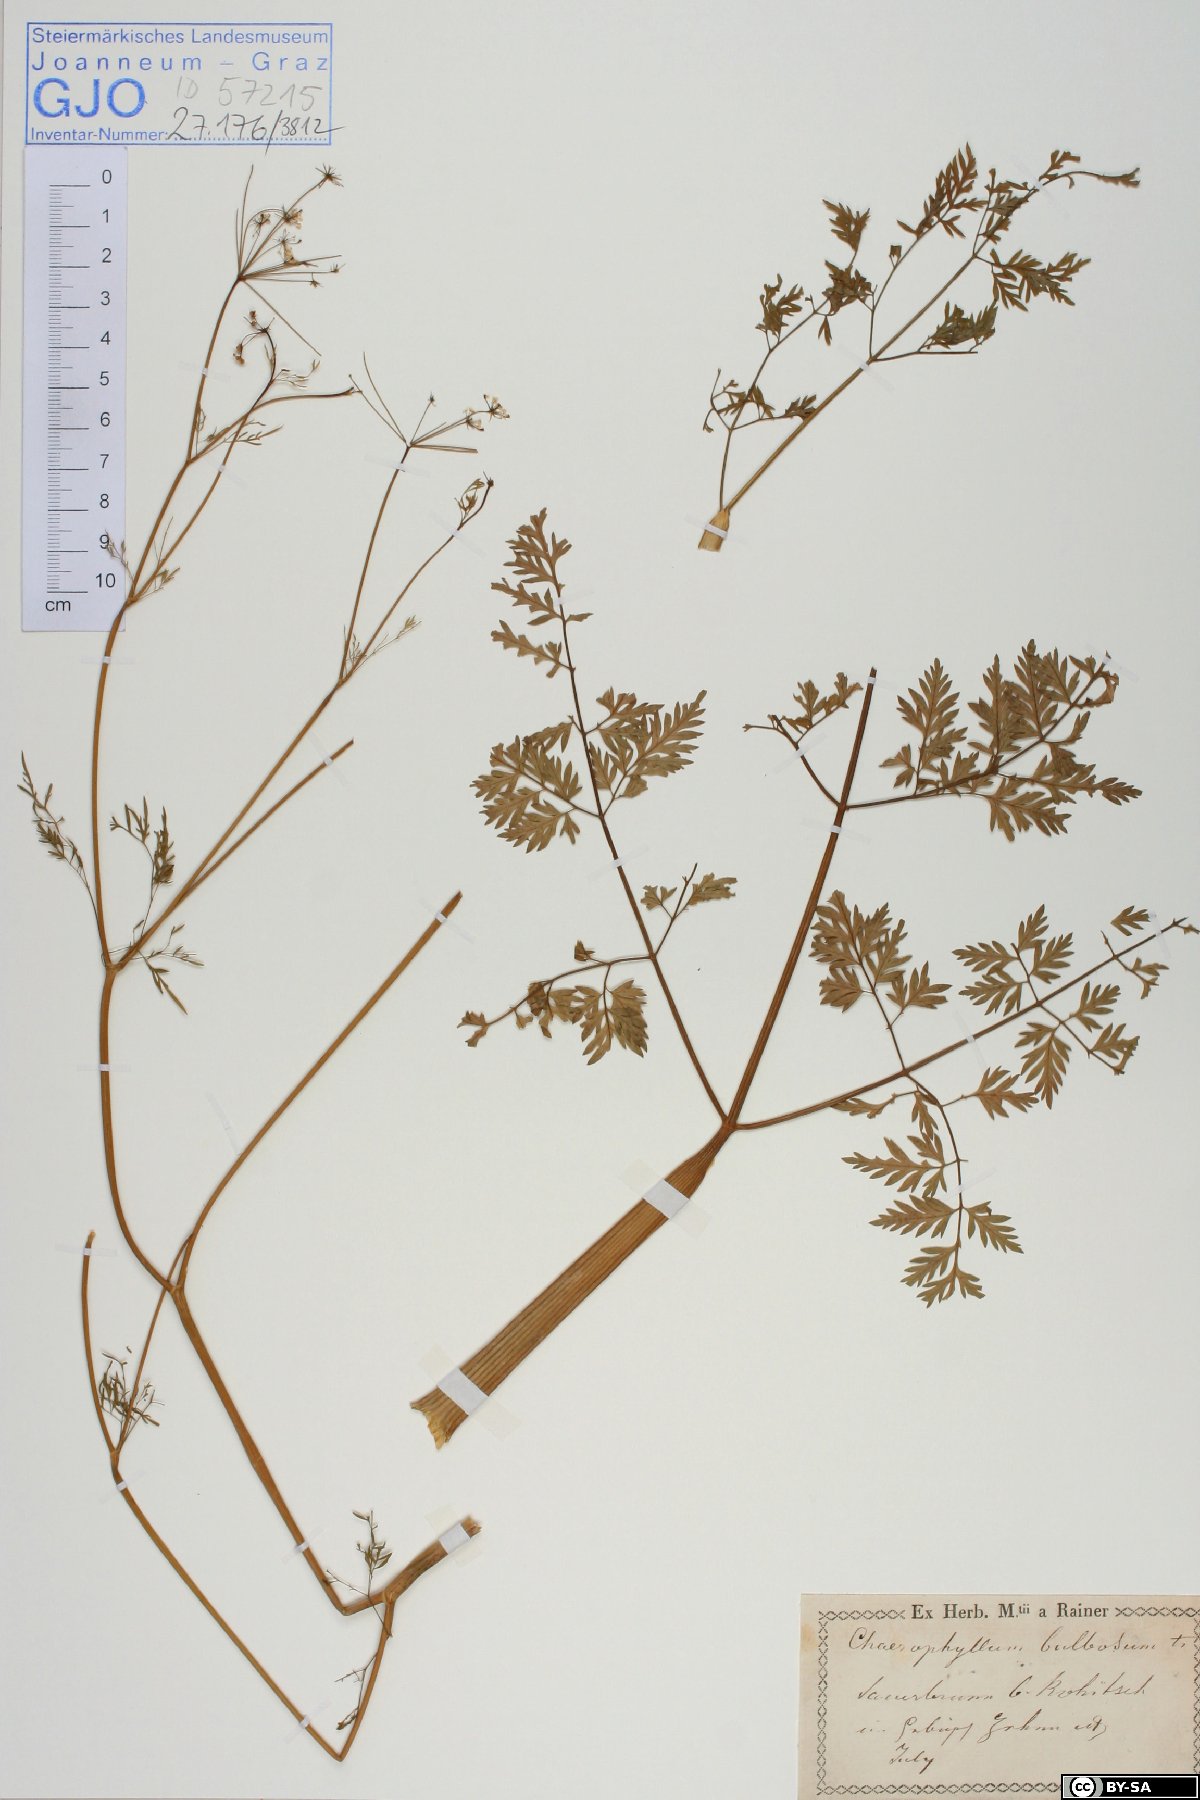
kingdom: Plantae
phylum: Tracheophyta
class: Magnoliopsida
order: Apiales
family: Apiaceae
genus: Chaerophyllum
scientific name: Chaerophyllum bulbosum
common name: Bulbous chervil
